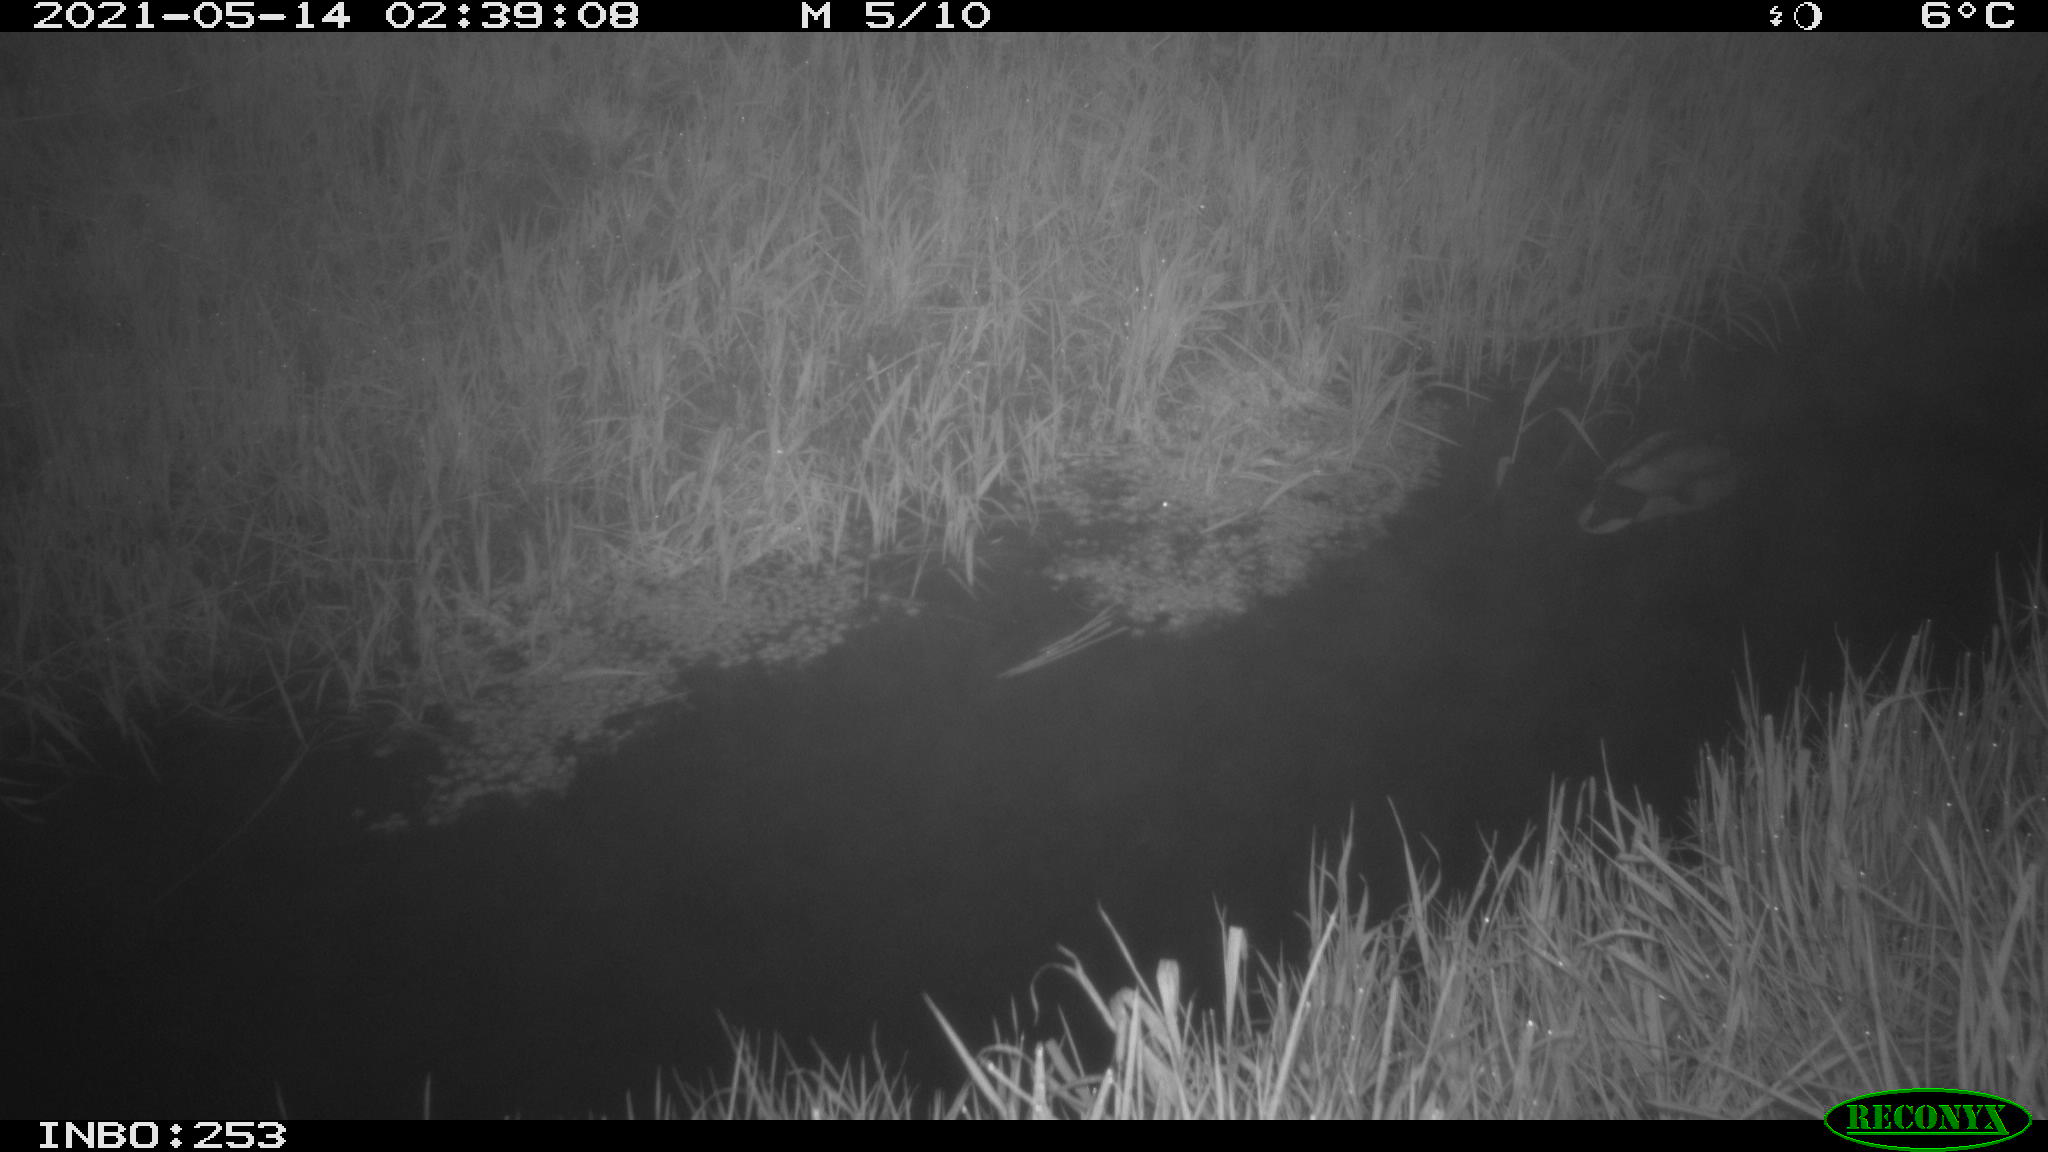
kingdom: Animalia
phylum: Chordata
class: Aves
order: Anseriformes
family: Anatidae
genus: Anas
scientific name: Anas platyrhynchos
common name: Mallard
